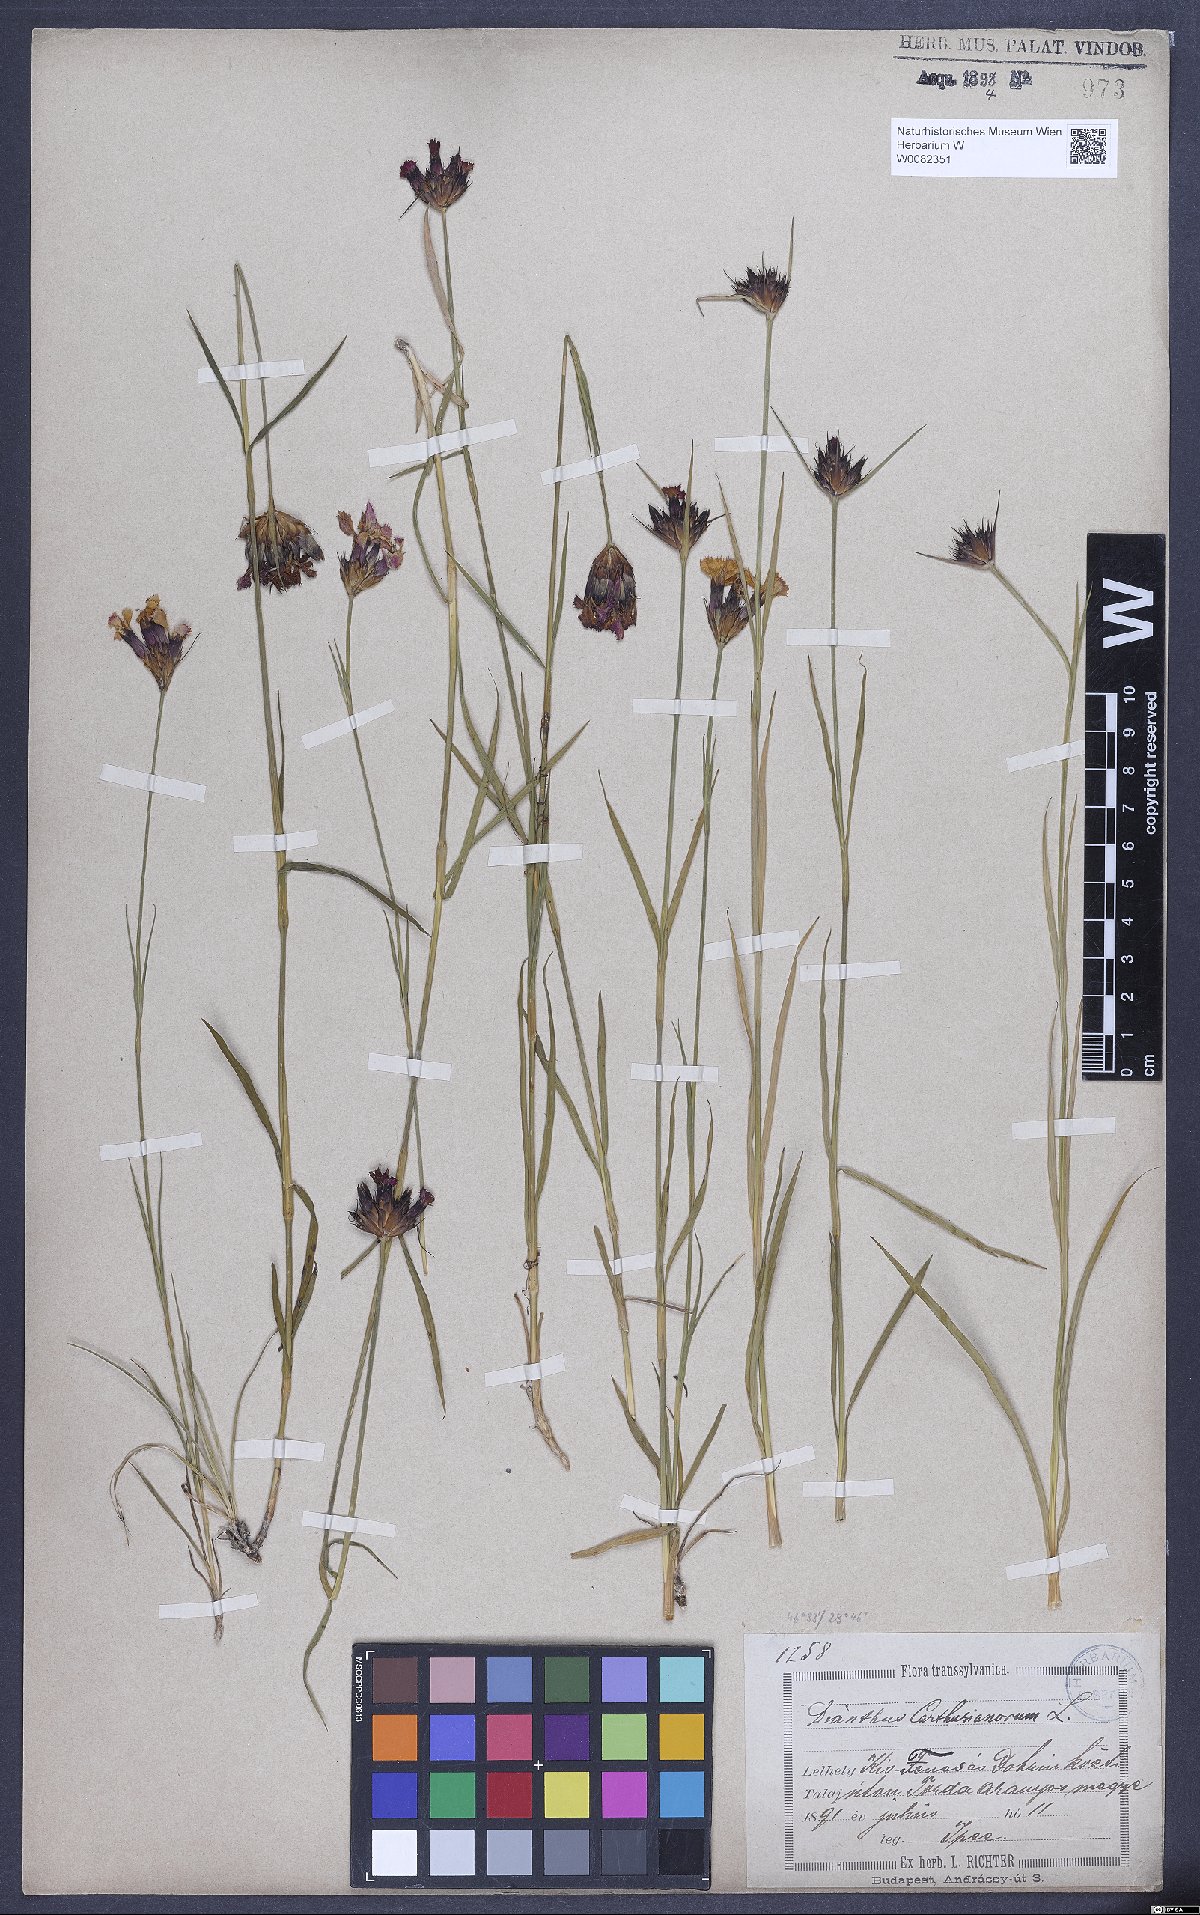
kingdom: Plantae
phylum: Tracheophyta
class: Magnoliopsida
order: Caryophyllales
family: Caryophyllaceae
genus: Dianthus
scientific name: Dianthus carthusianorum
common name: Carthusian pink
